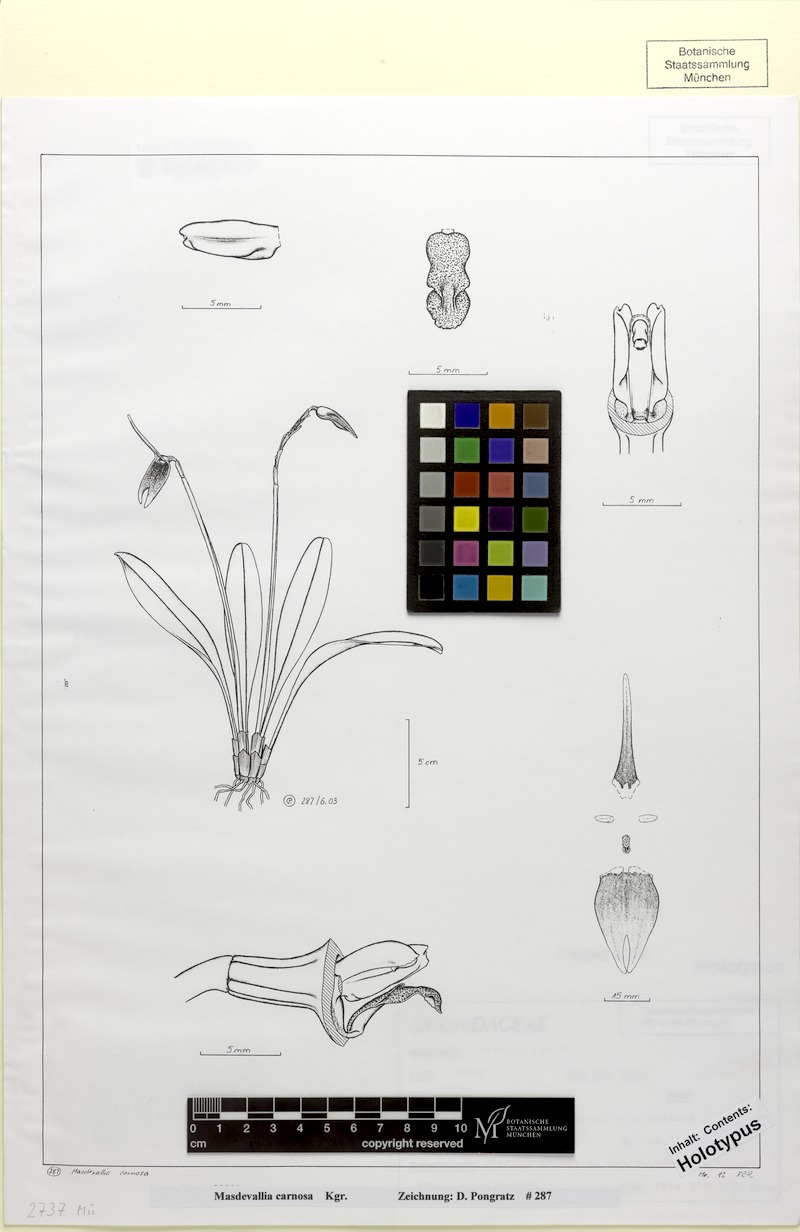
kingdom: Plantae
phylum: Tracheophyta
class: Liliopsida
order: Asparagales
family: Orchidaceae
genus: Masdevallia
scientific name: Masdevallia carnosa
